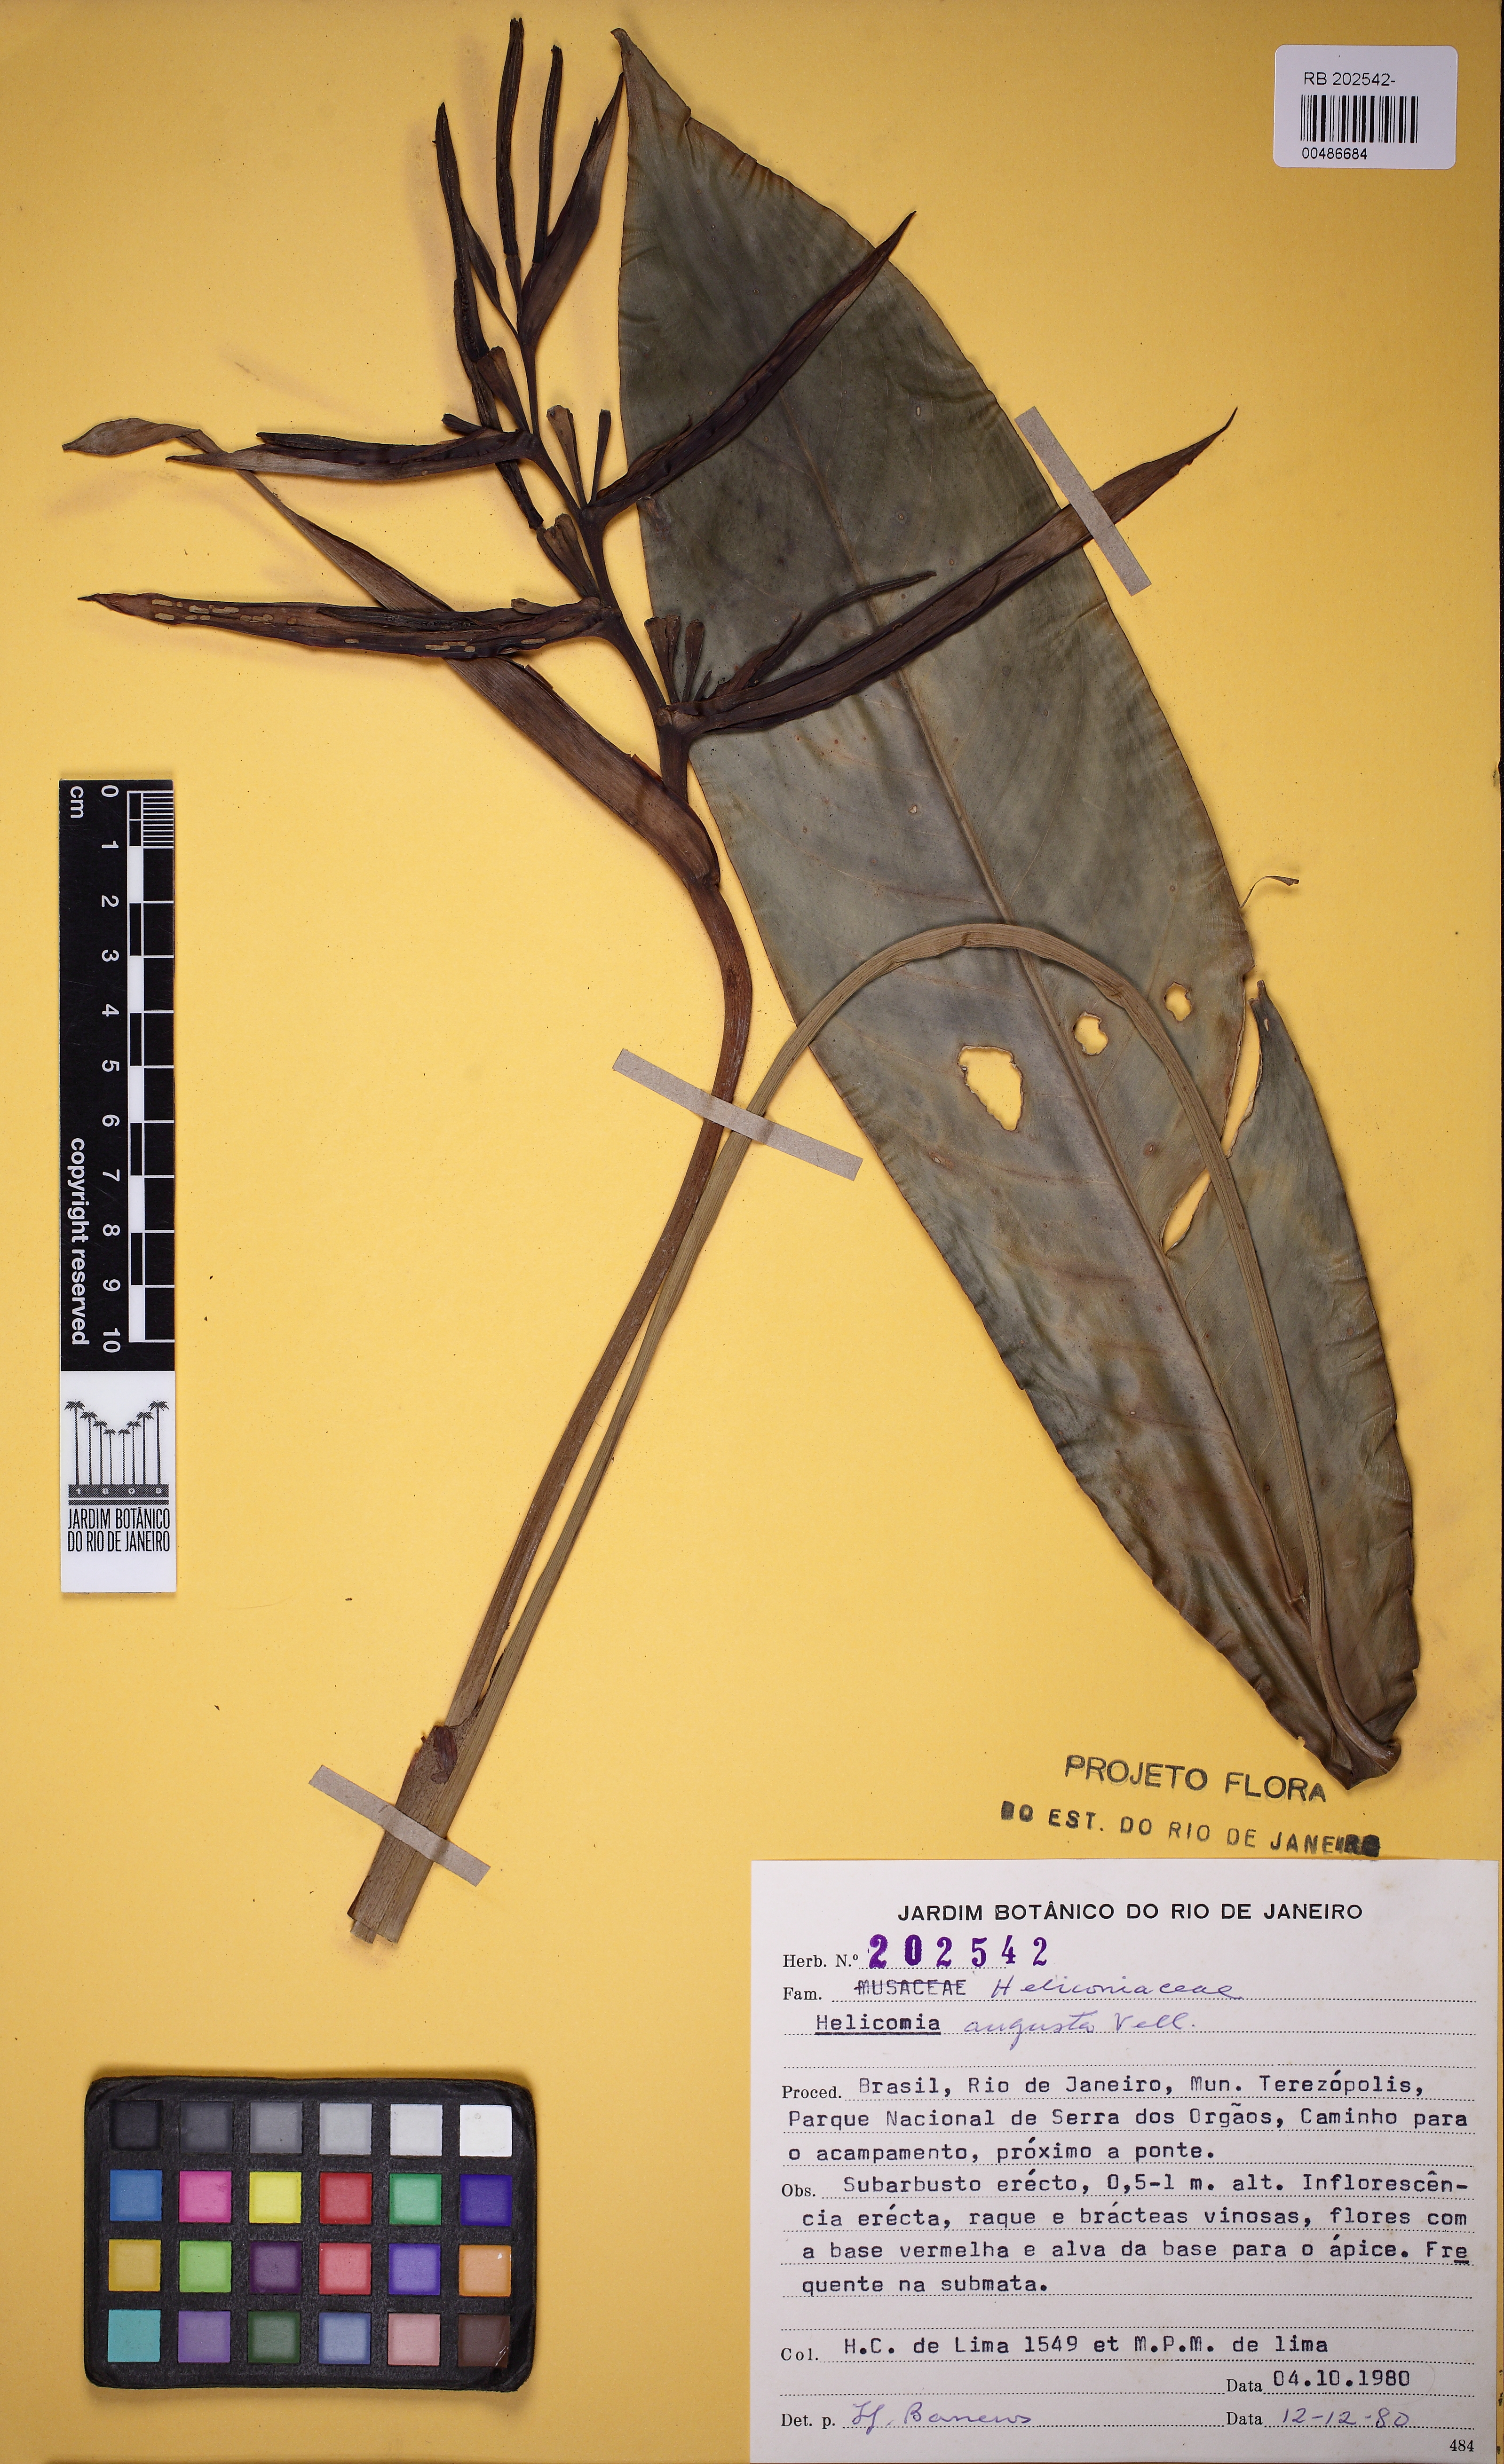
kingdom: Plantae
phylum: Tracheophyta
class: Liliopsida
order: Zingiberales
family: Heliconiaceae
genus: Heliconia
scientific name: Heliconia angusta
